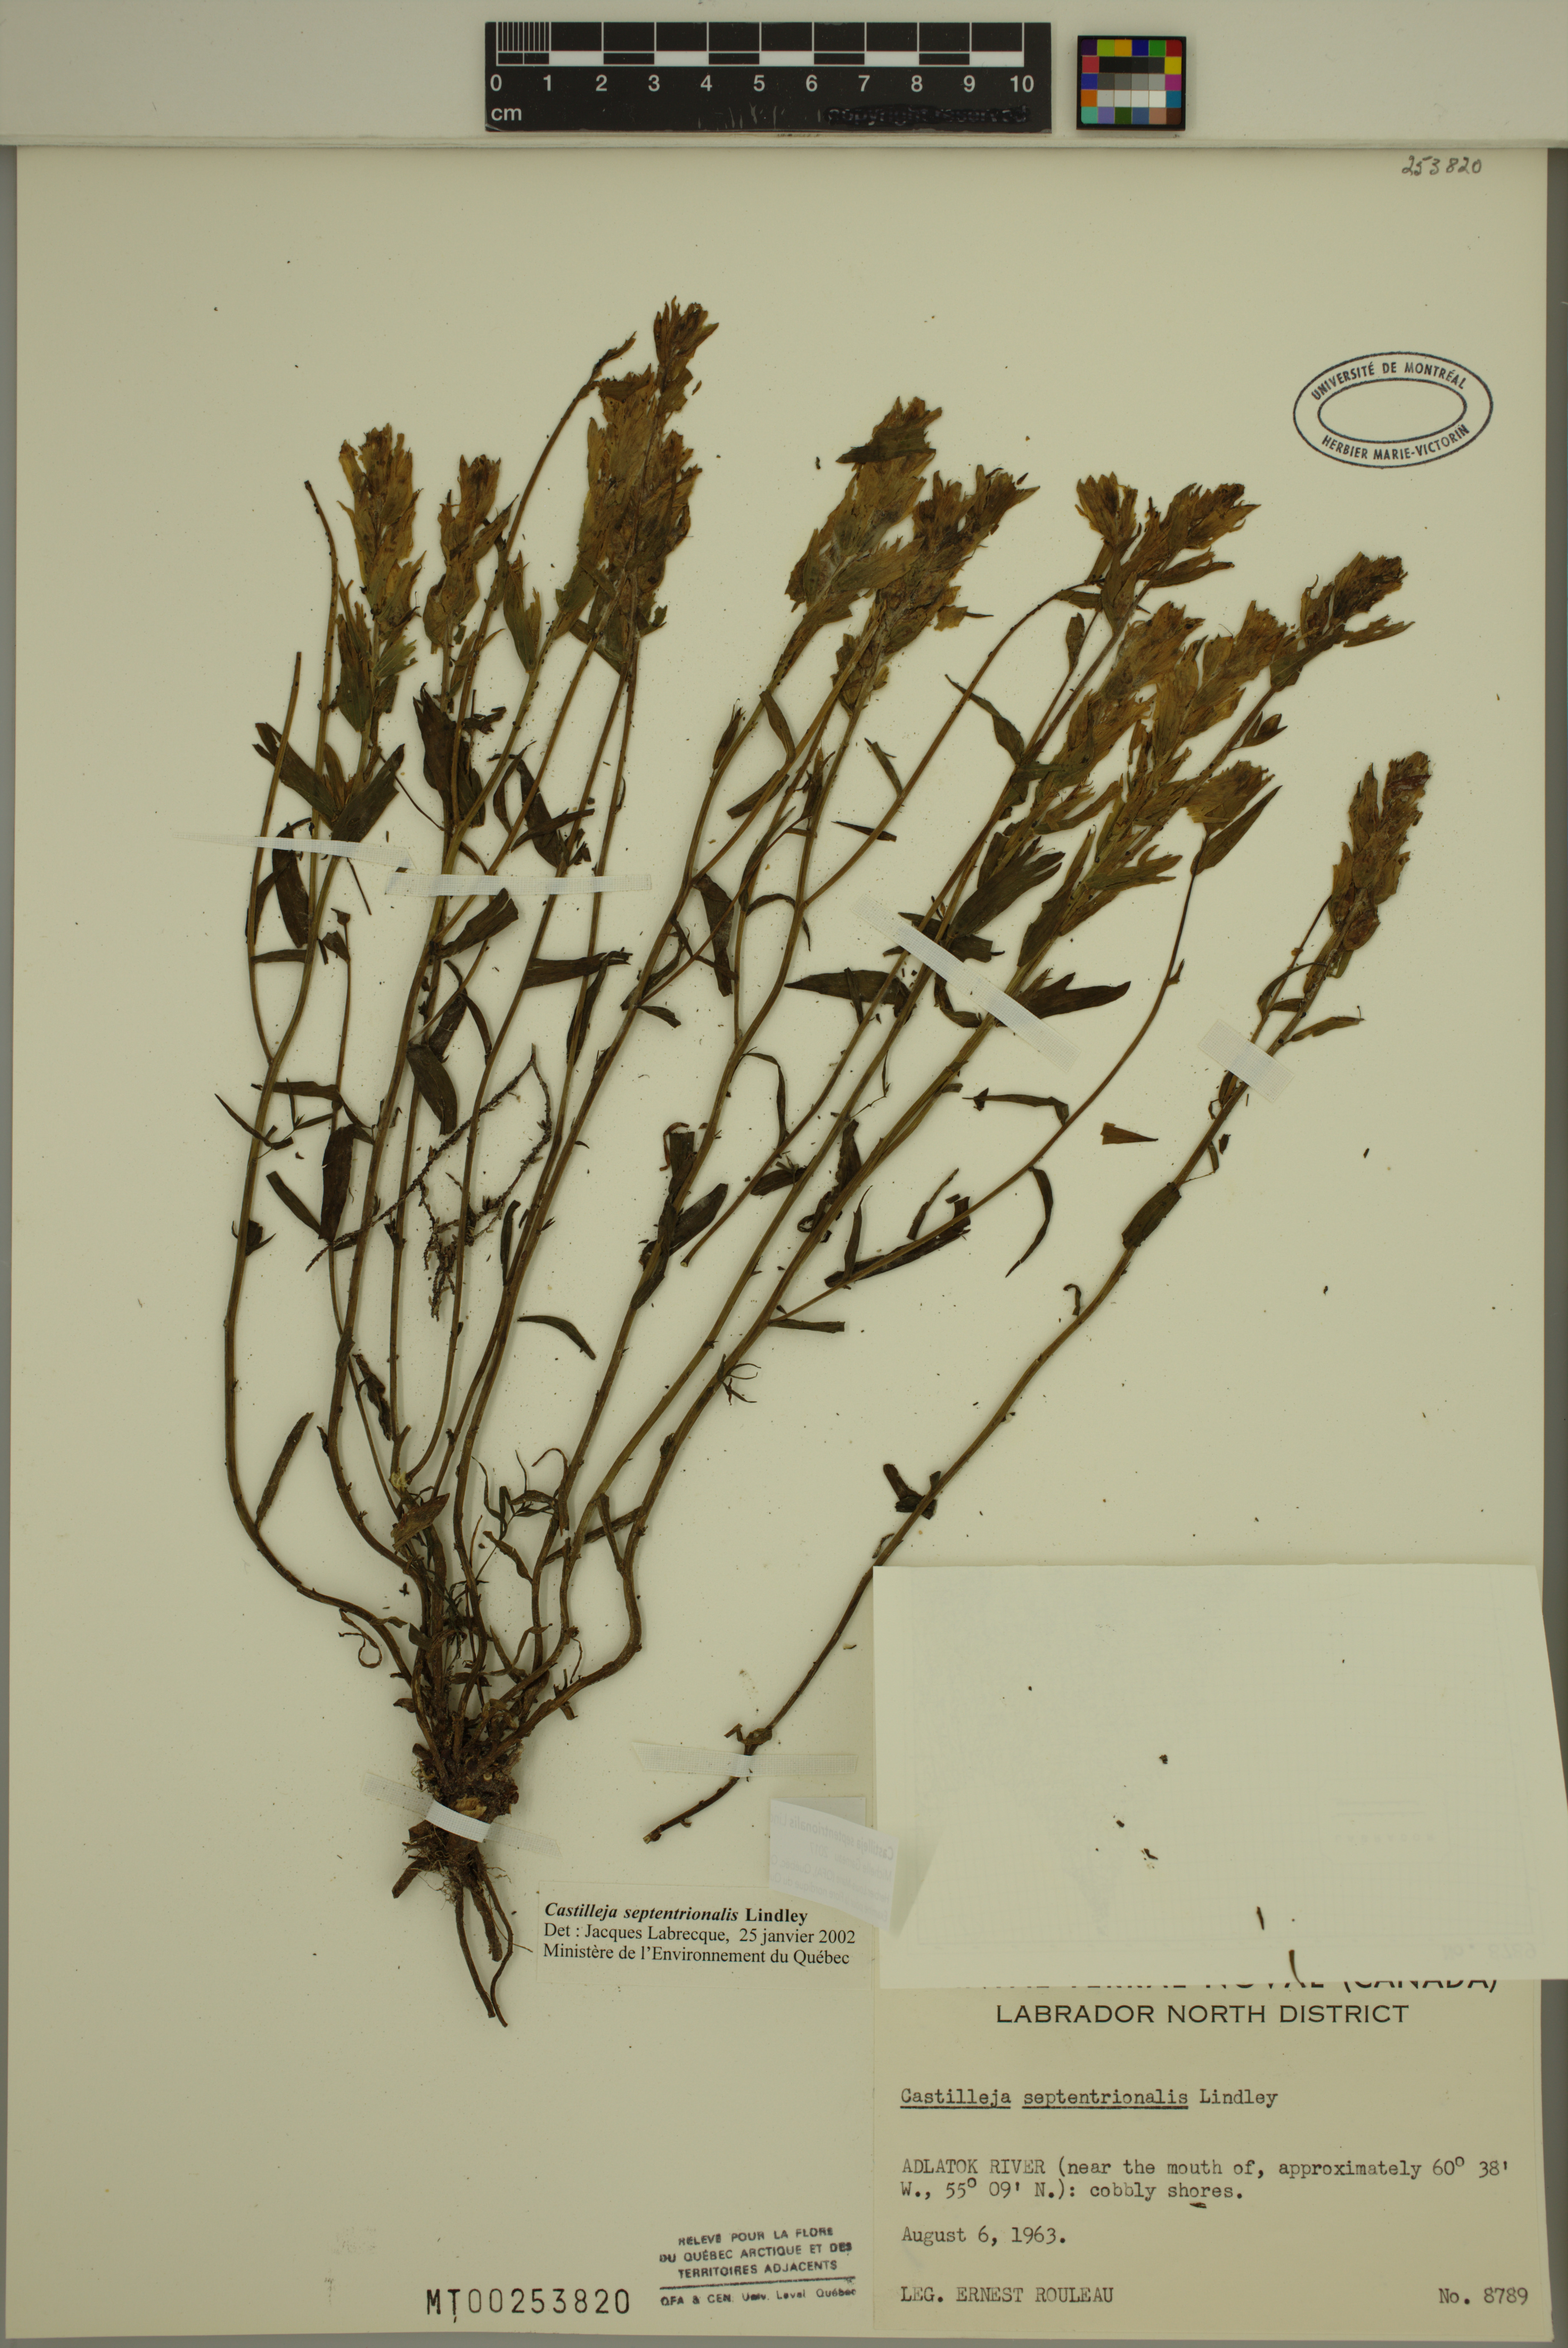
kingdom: Plantae
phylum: Tracheophyta
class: Magnoliopsida
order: Lamiales
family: Orobanchaceae
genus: Castilleja
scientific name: Castilleja septentrionalis
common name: Northeastern paintbrush
